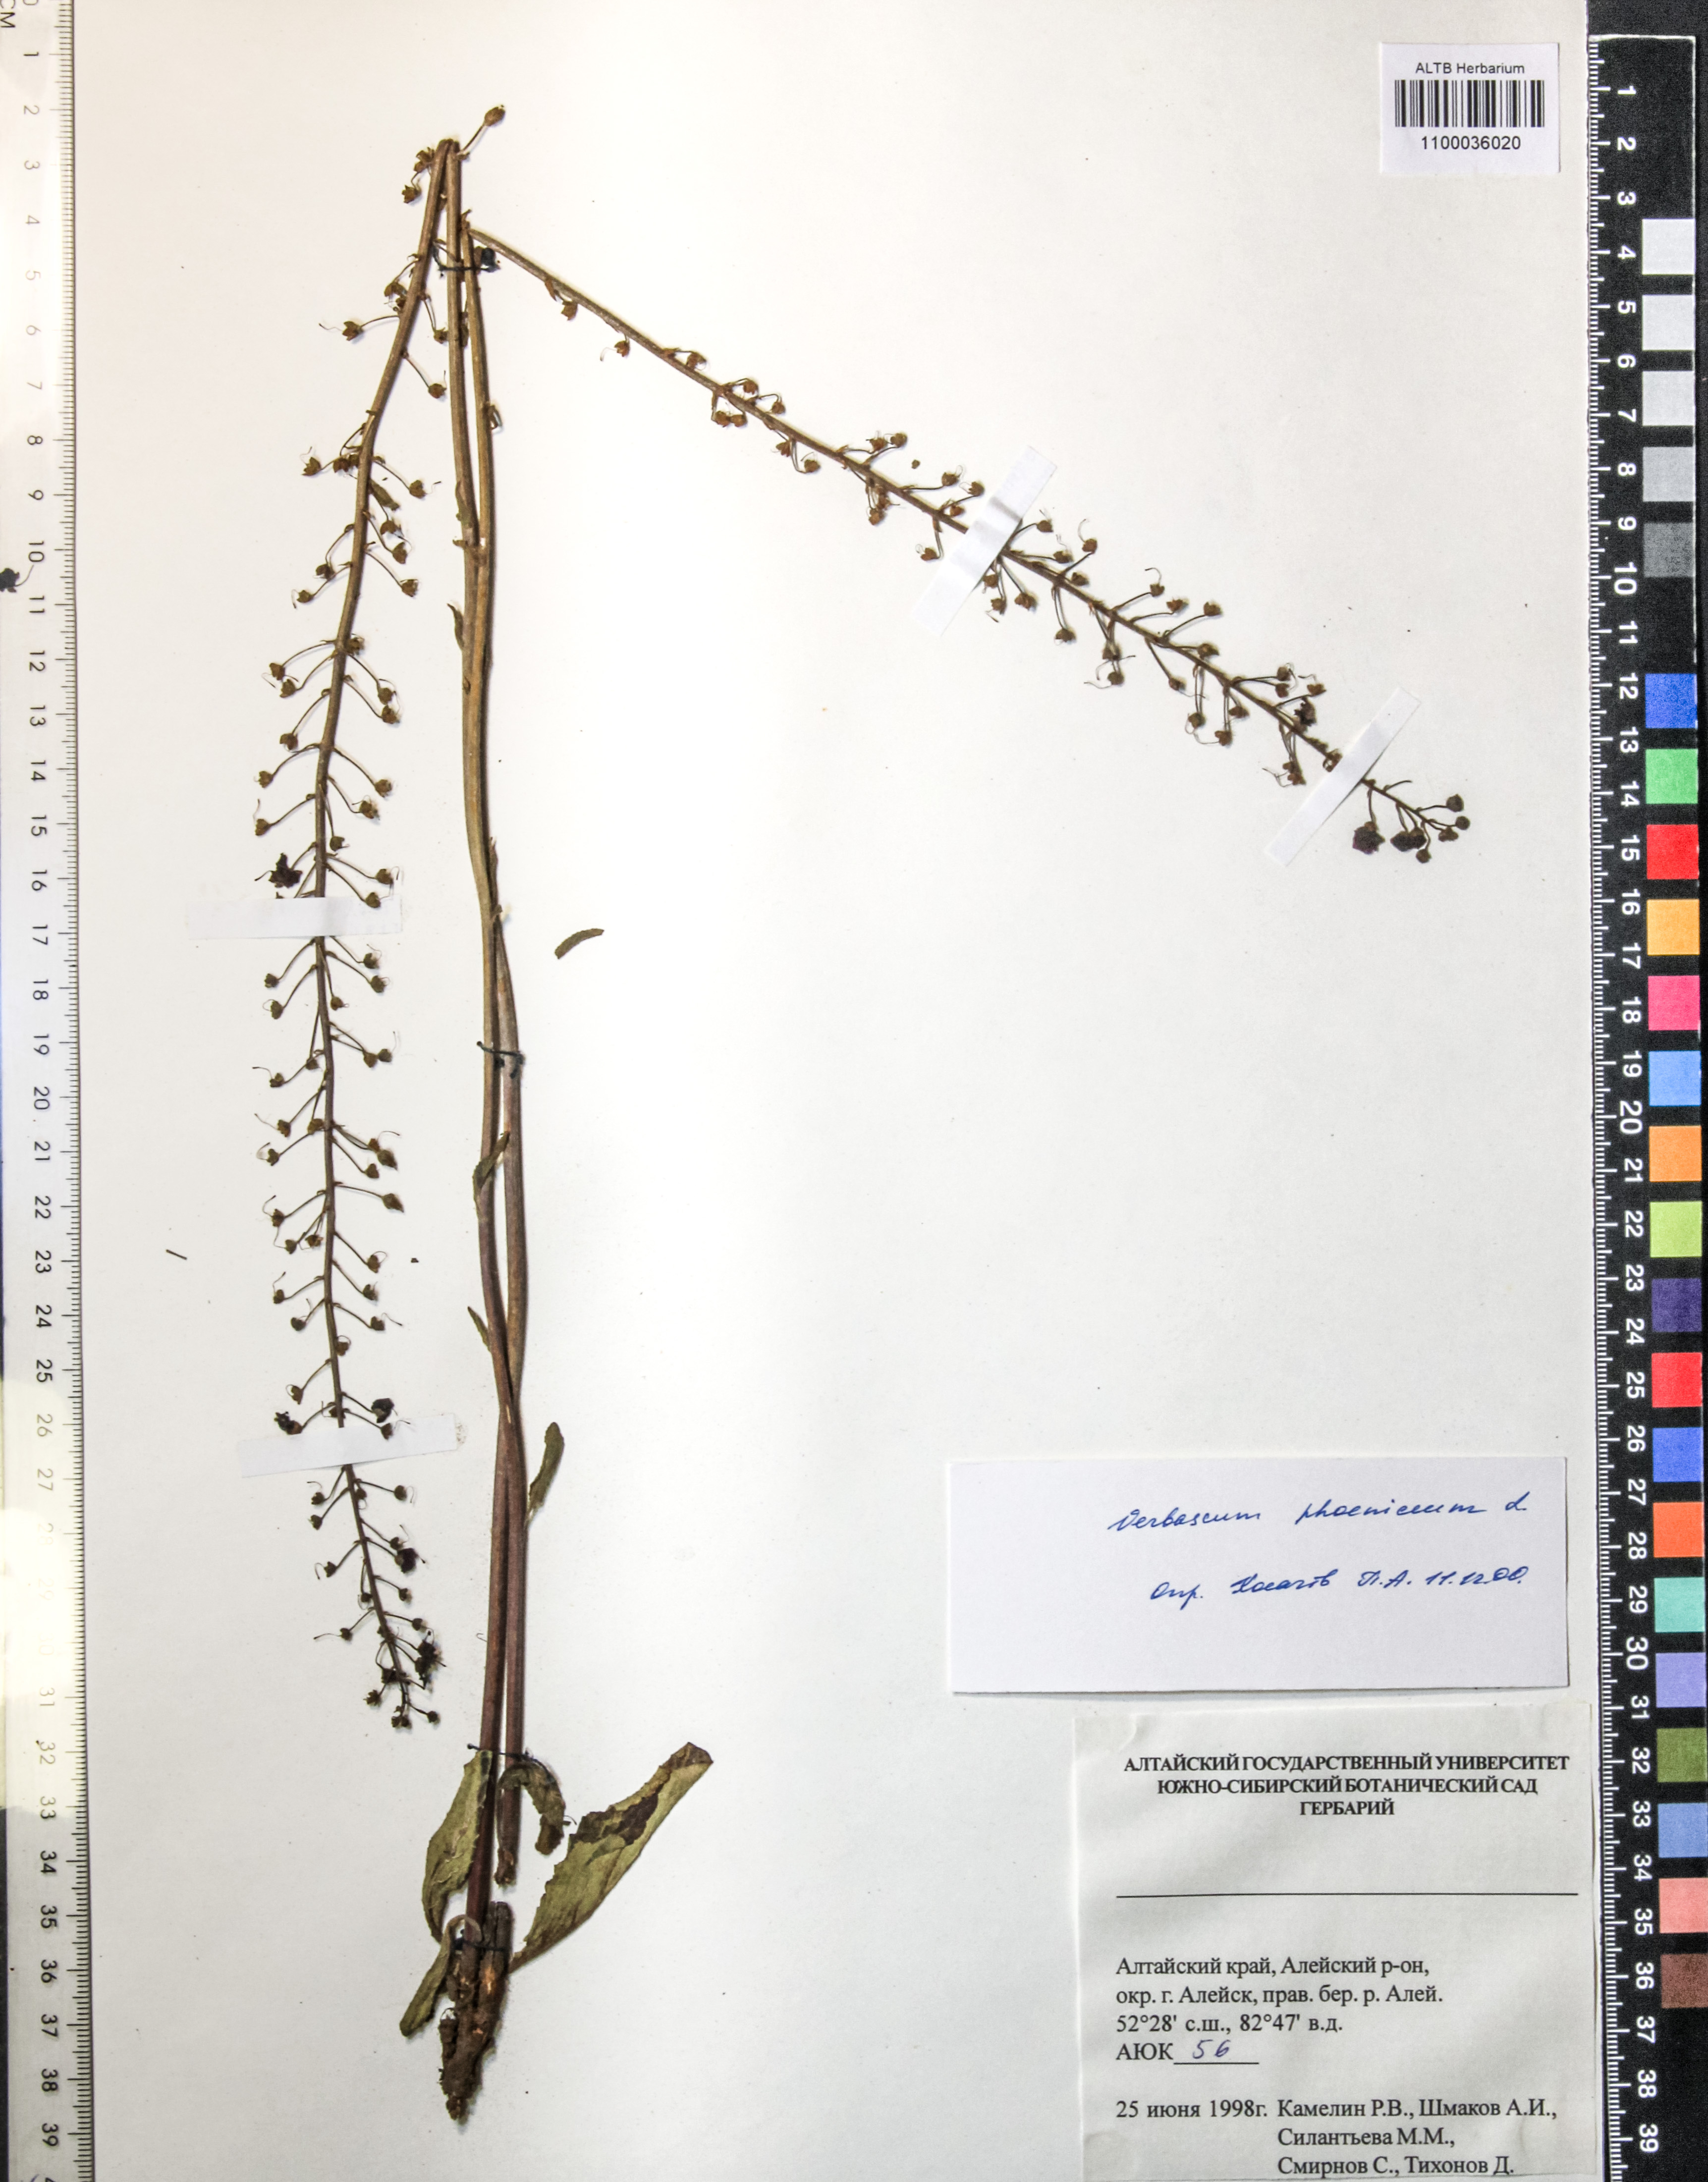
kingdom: Plantae
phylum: Tracheophyta
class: Magnoliopsida
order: Lamiales
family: Scrophulariaceae
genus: Verbascum
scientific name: Verbascum phoeniceum
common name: Purple mullein
